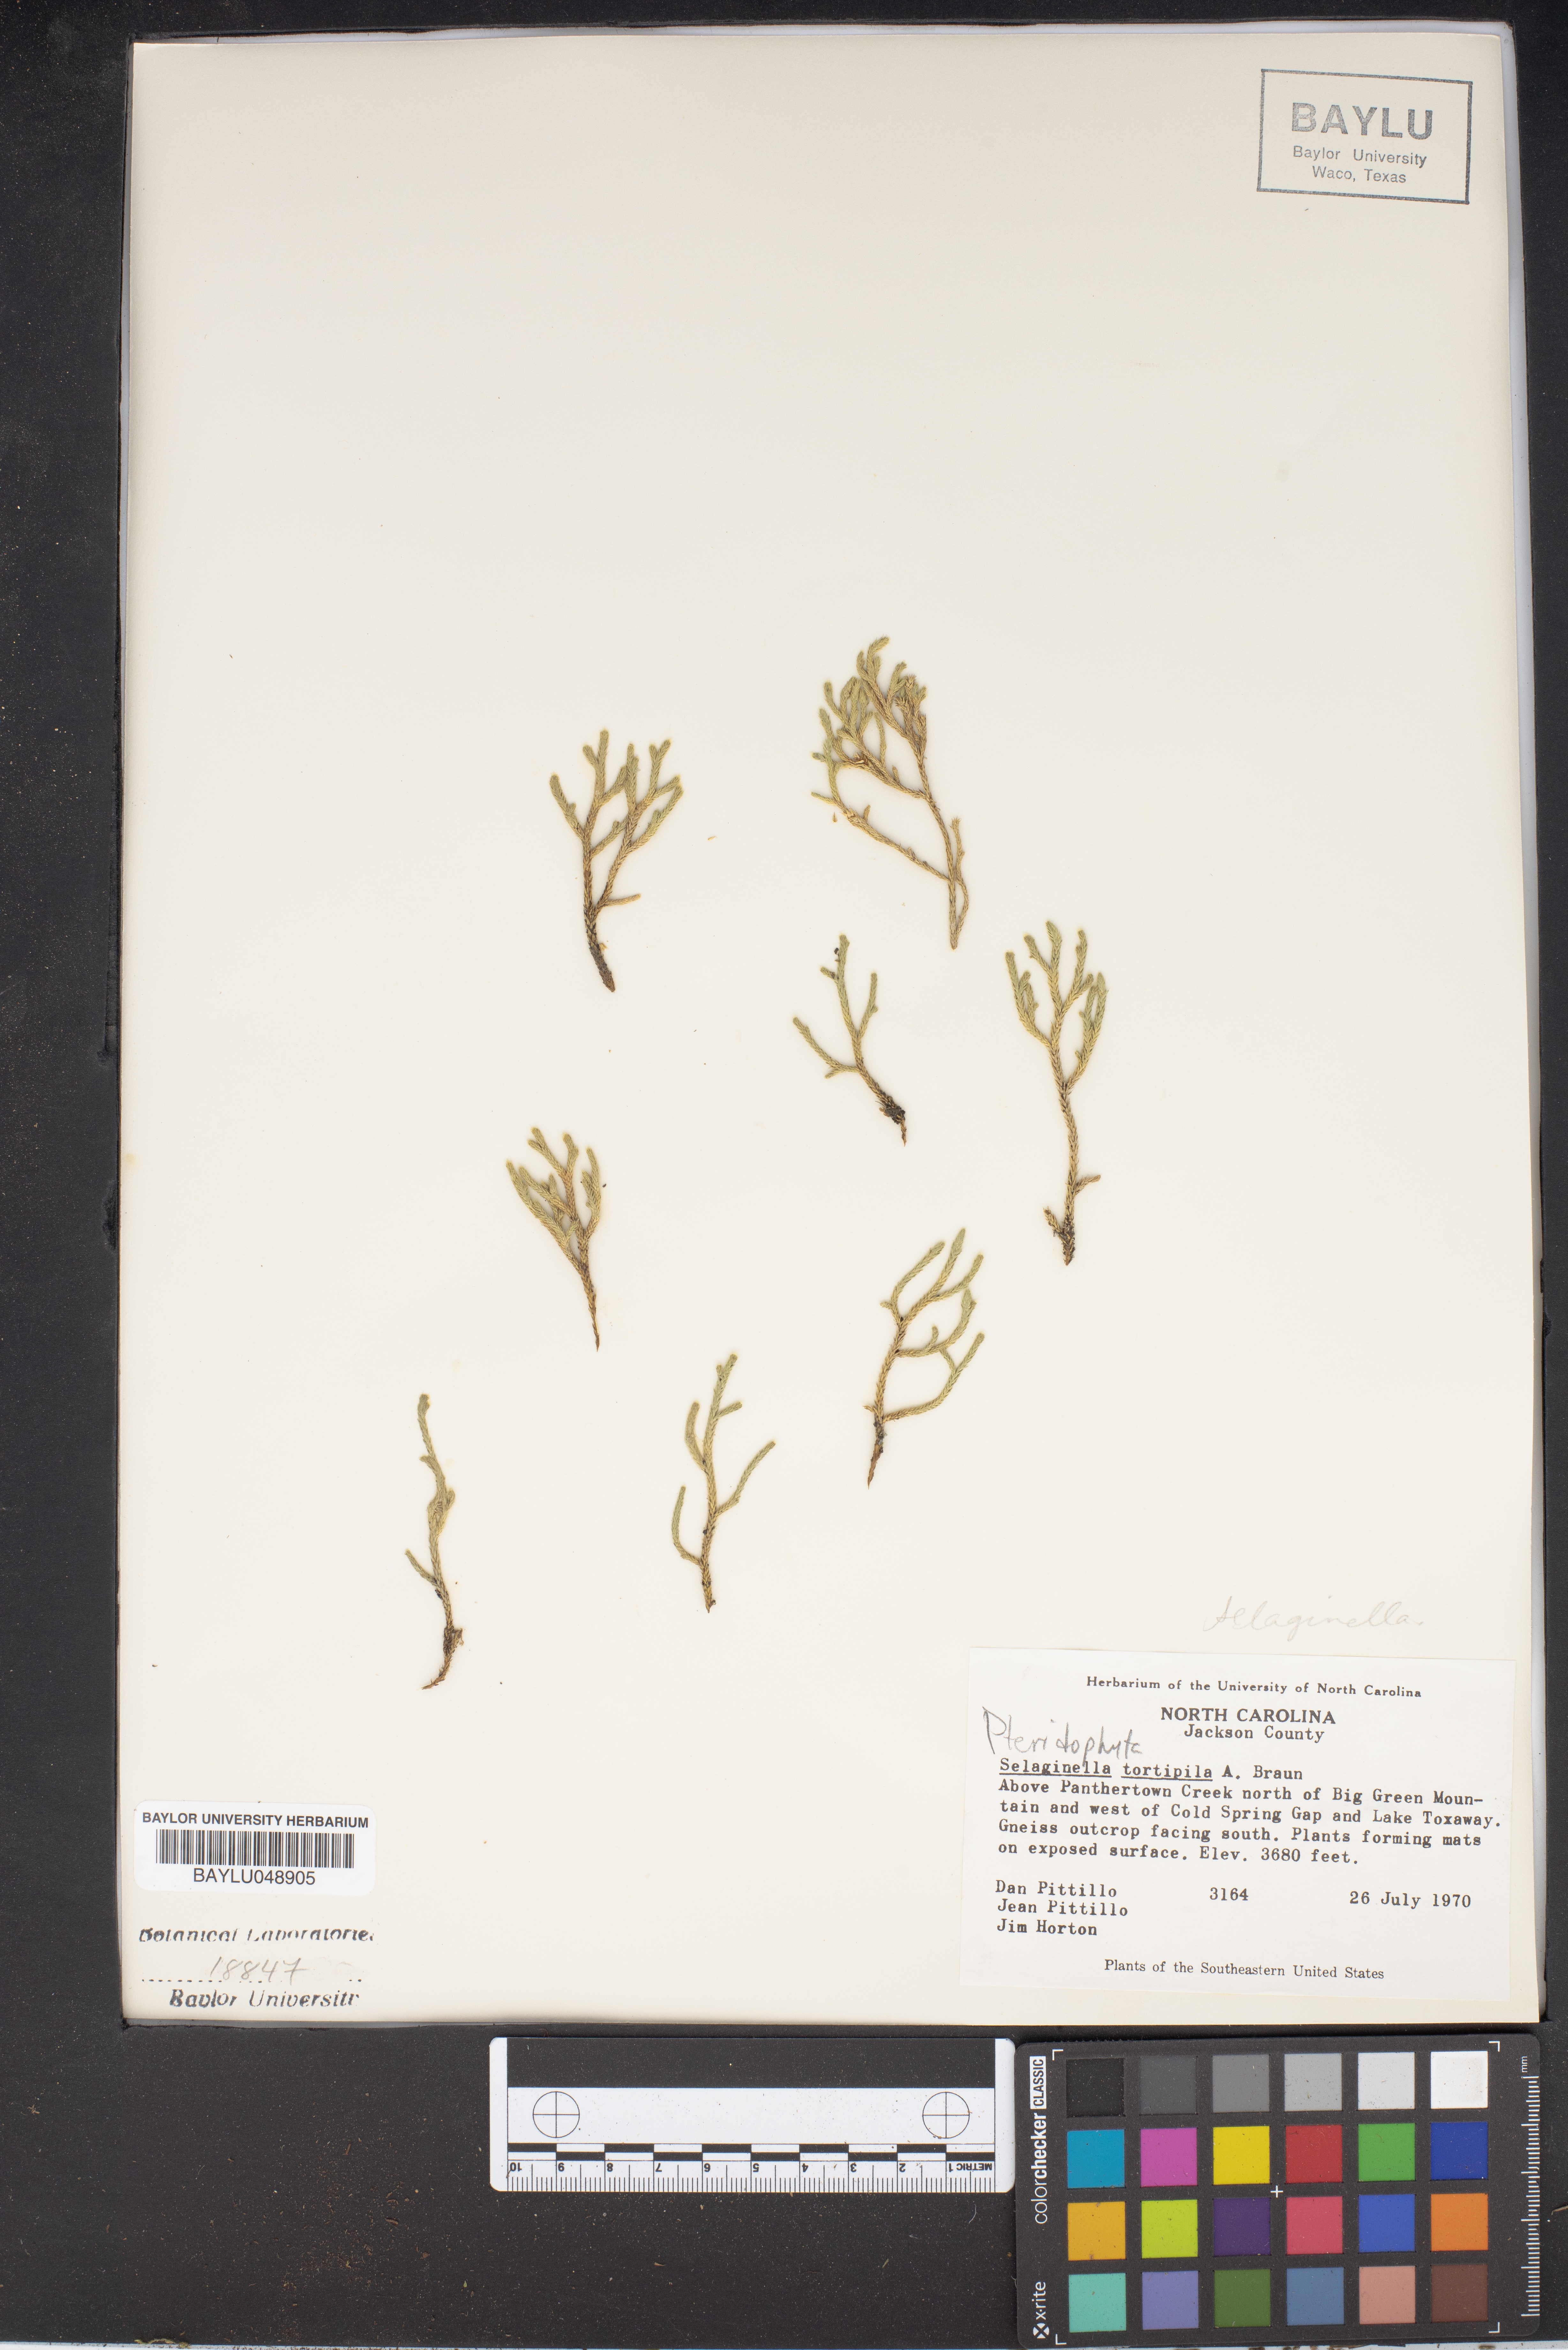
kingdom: Plantae
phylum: Tracheophyta
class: Lycopodiopsida
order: Selaginellales
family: Selaginellaceae
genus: Selaginella
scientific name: Selaginella tortipila
